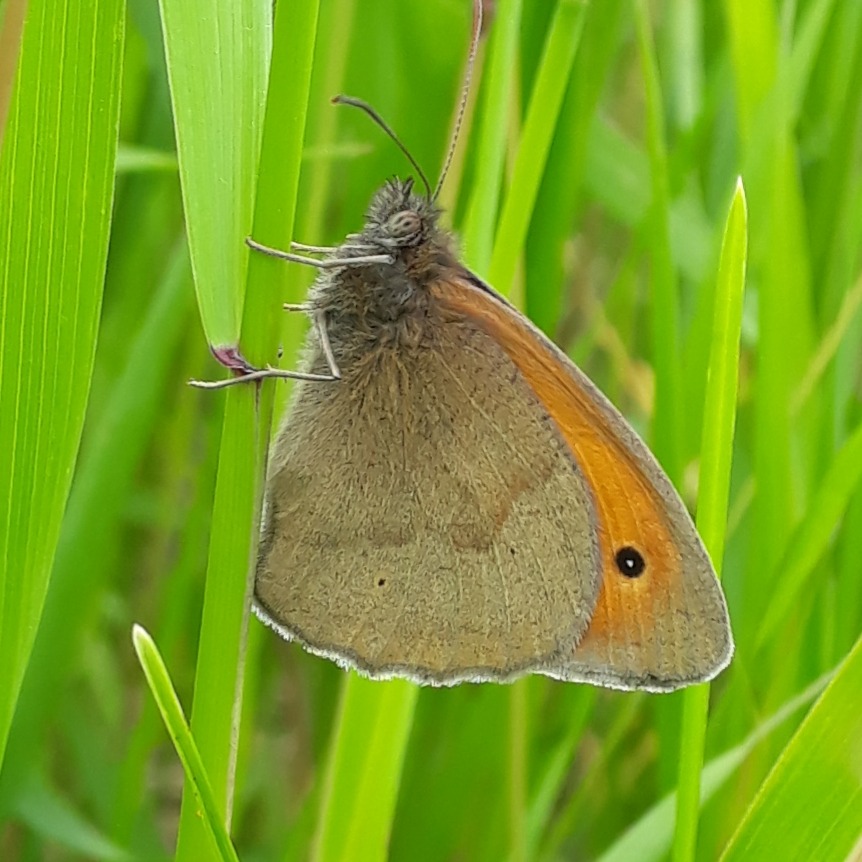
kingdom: Animalia
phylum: Arthropoda
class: Insecta
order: Lepidoptera
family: Nymphalidae
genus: Maniola
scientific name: Maniola jurtina
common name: Græsrandøje
